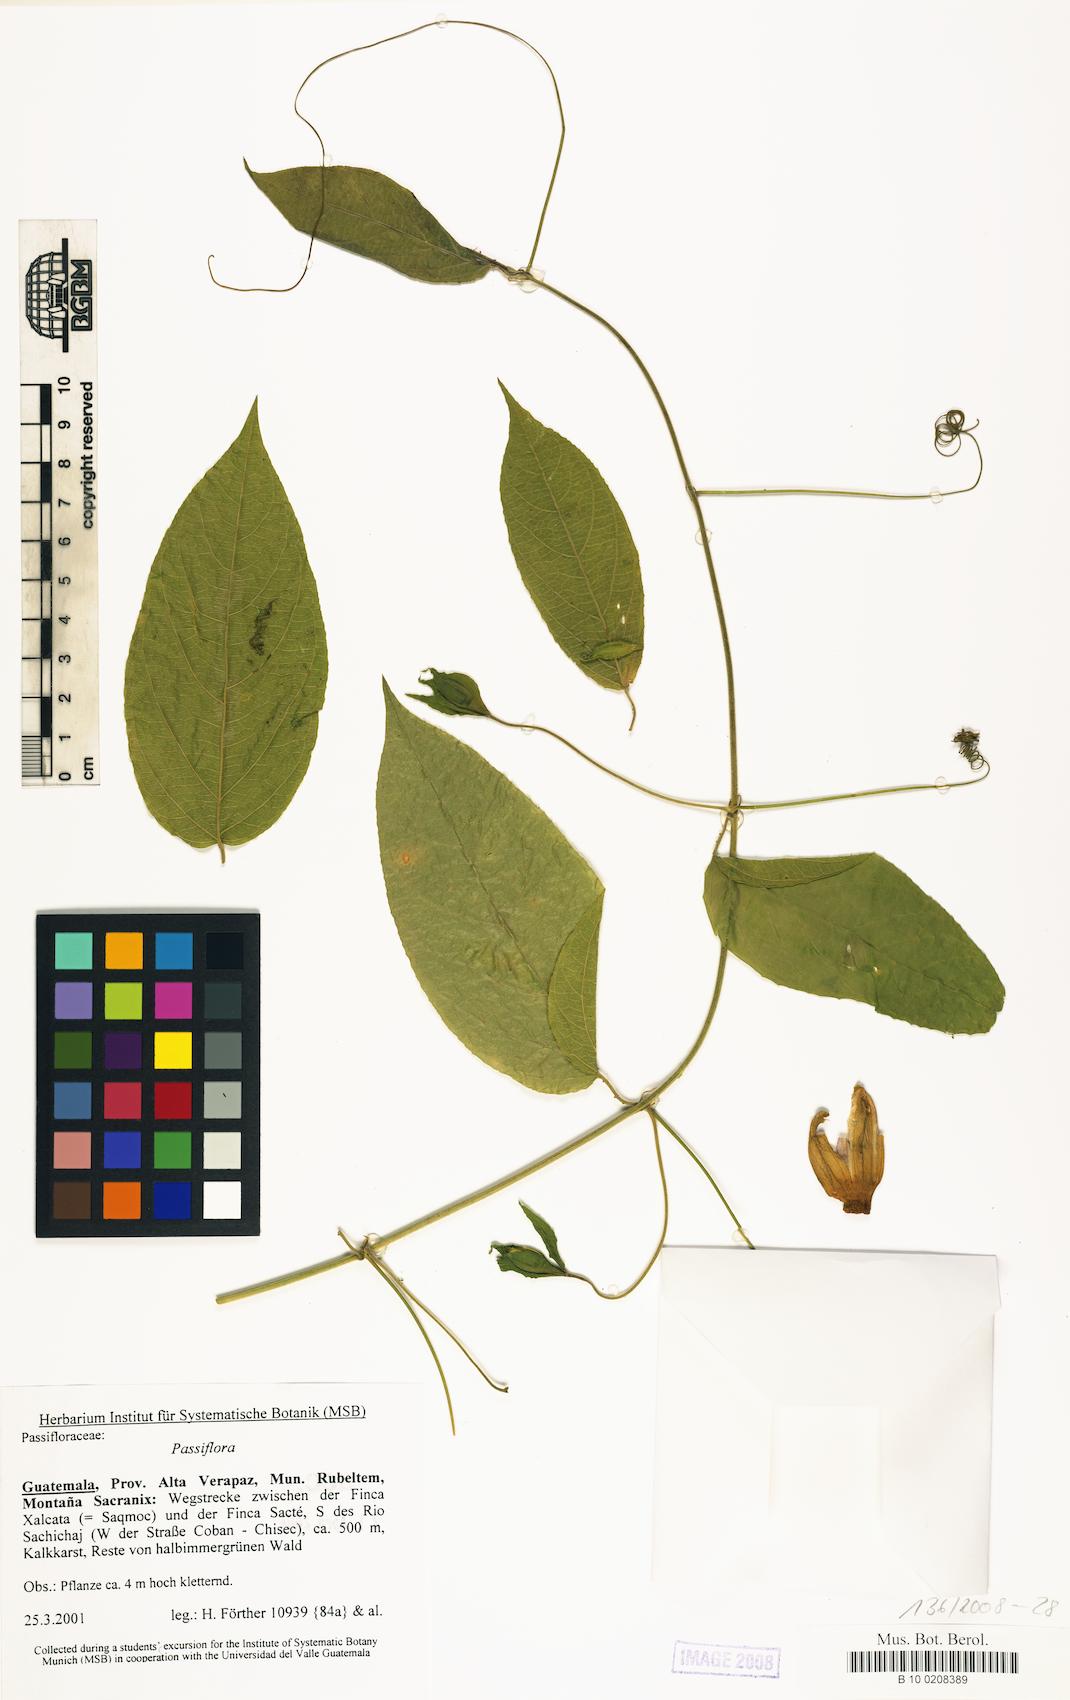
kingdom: Plantae
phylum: Tracheophyta
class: Magnoliopsida
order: Malpighiales
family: Passifloraceae
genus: Passiflora
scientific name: Passiflora
